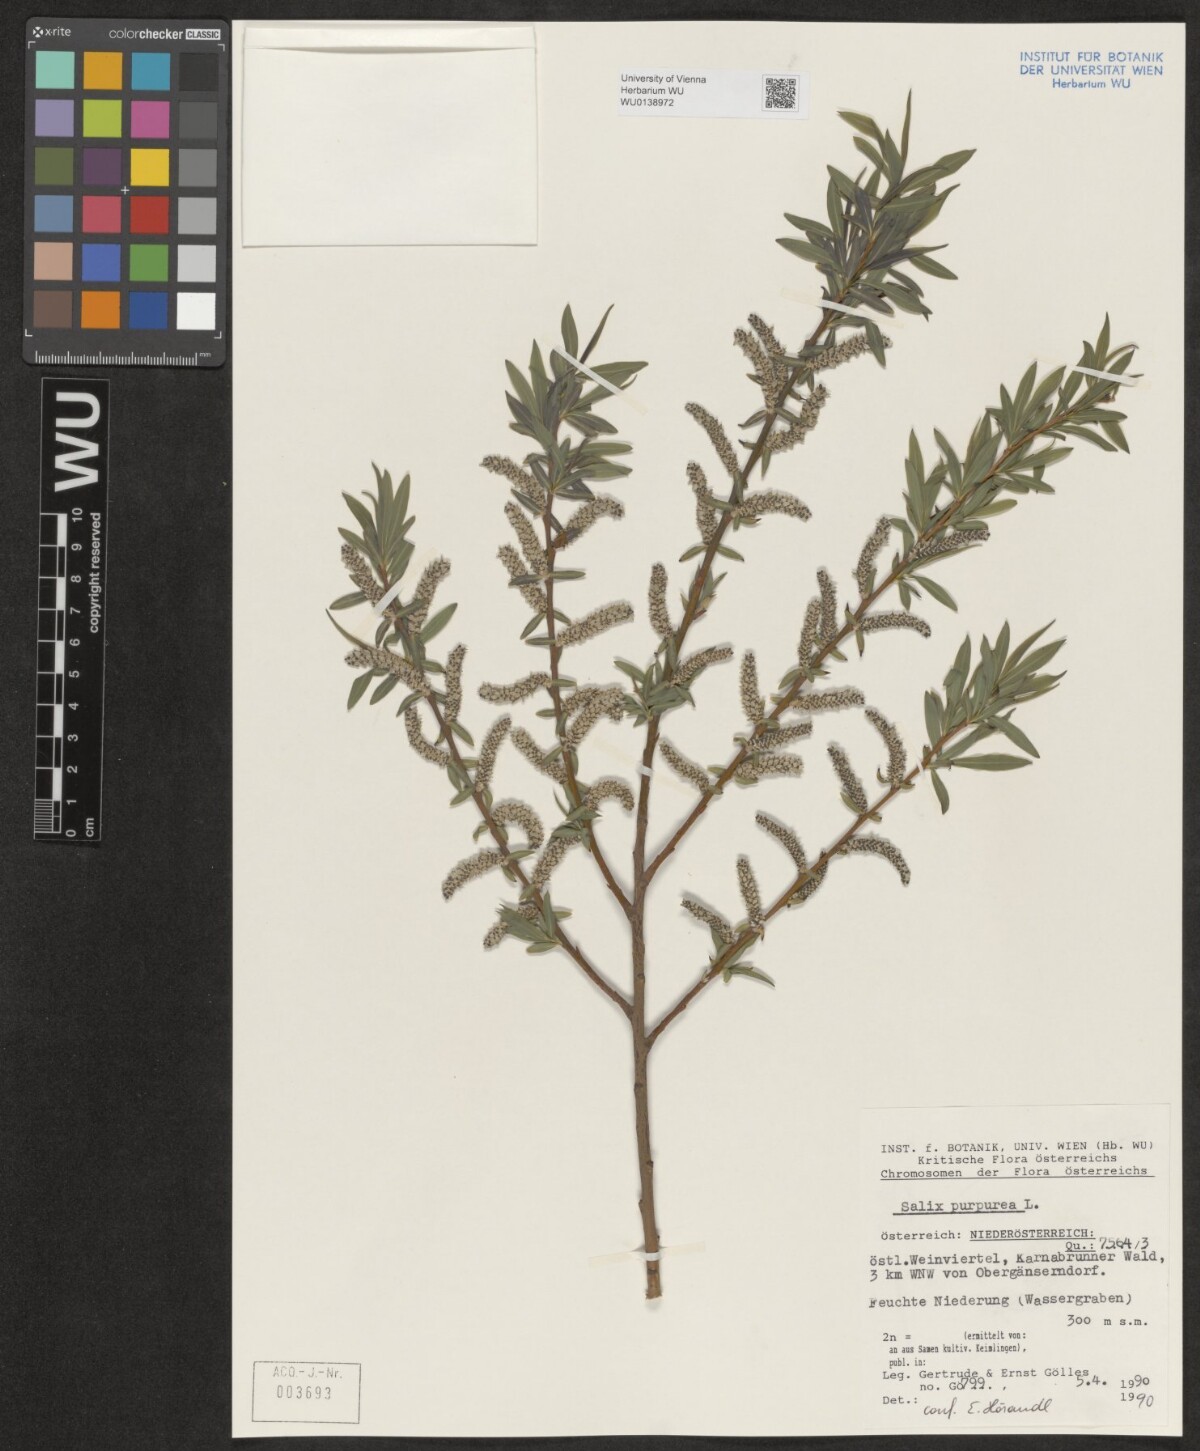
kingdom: Plantae
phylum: Tracheophyta
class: Magnoliopsida
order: Malpighiales
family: Salicaceae
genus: Salix
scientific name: Salix purpurea
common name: Purple willow
